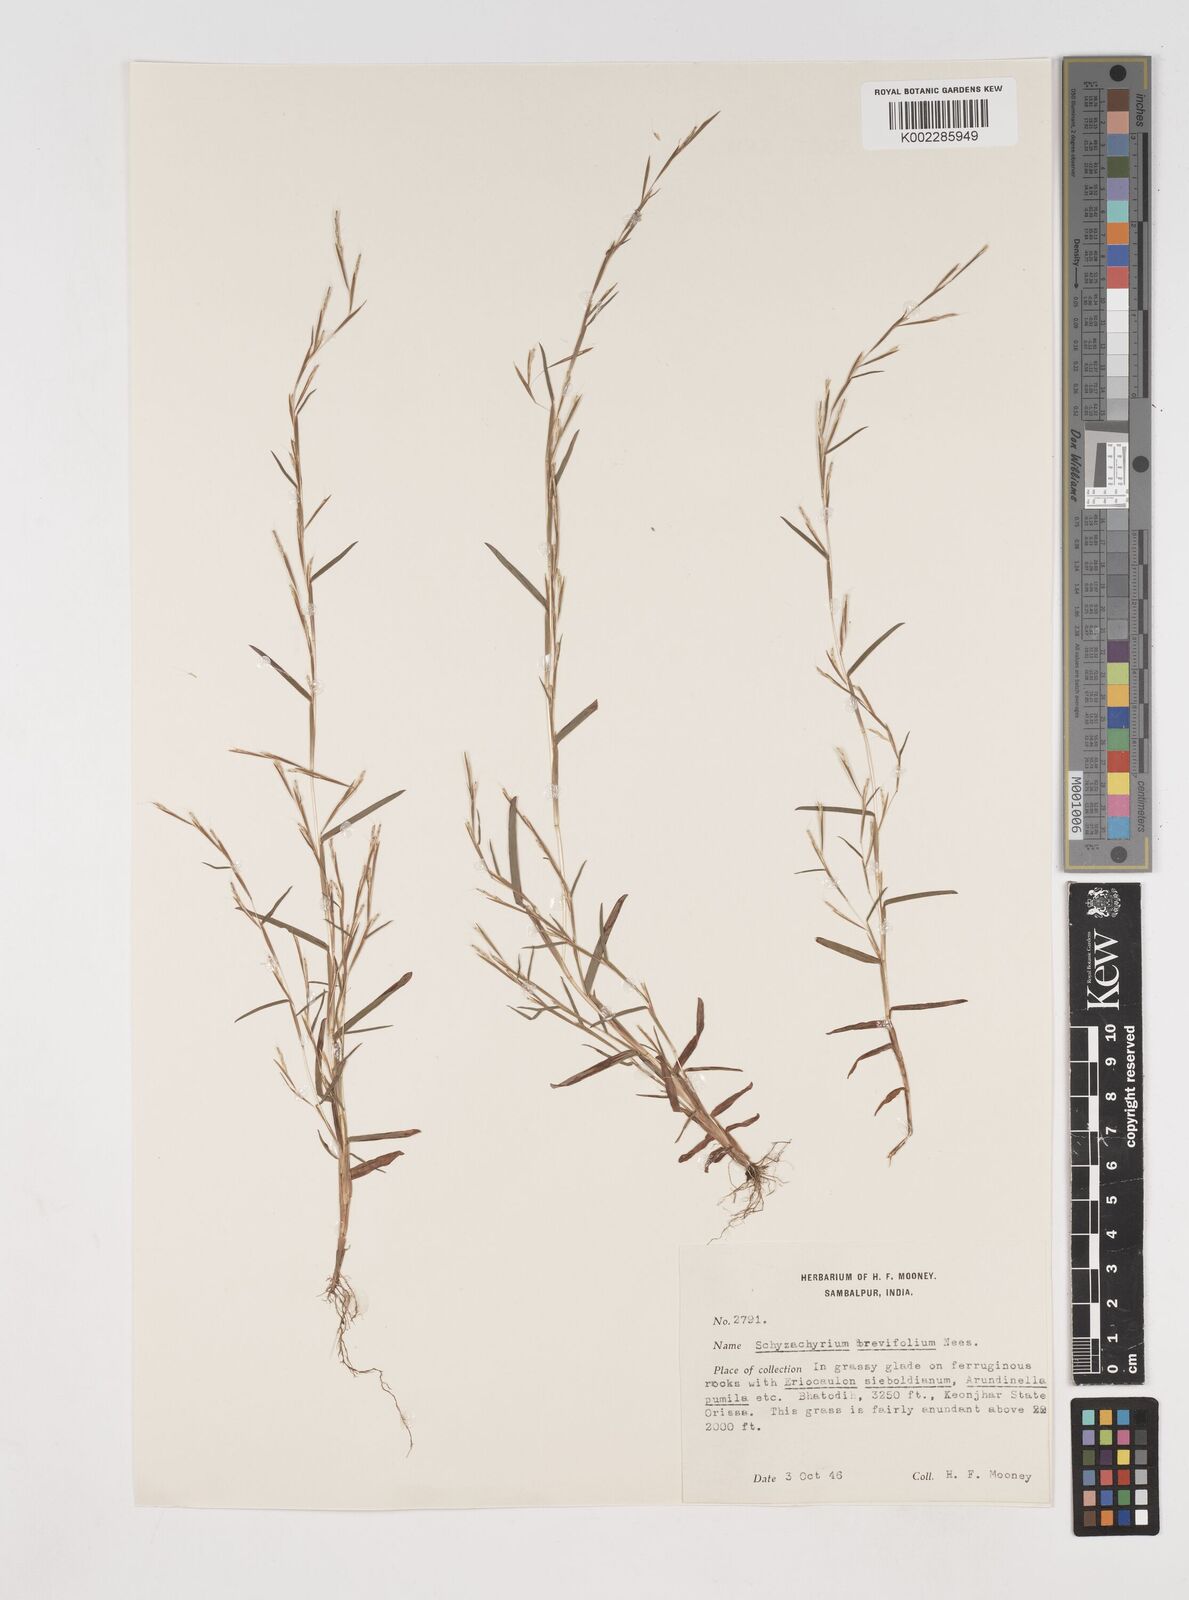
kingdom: Plantae
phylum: Tracheophyta
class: Liliopsida
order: Poales
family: Poaceae
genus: Schizachyrium
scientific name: Schizachyrium brevifolium
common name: Serillo dulce
